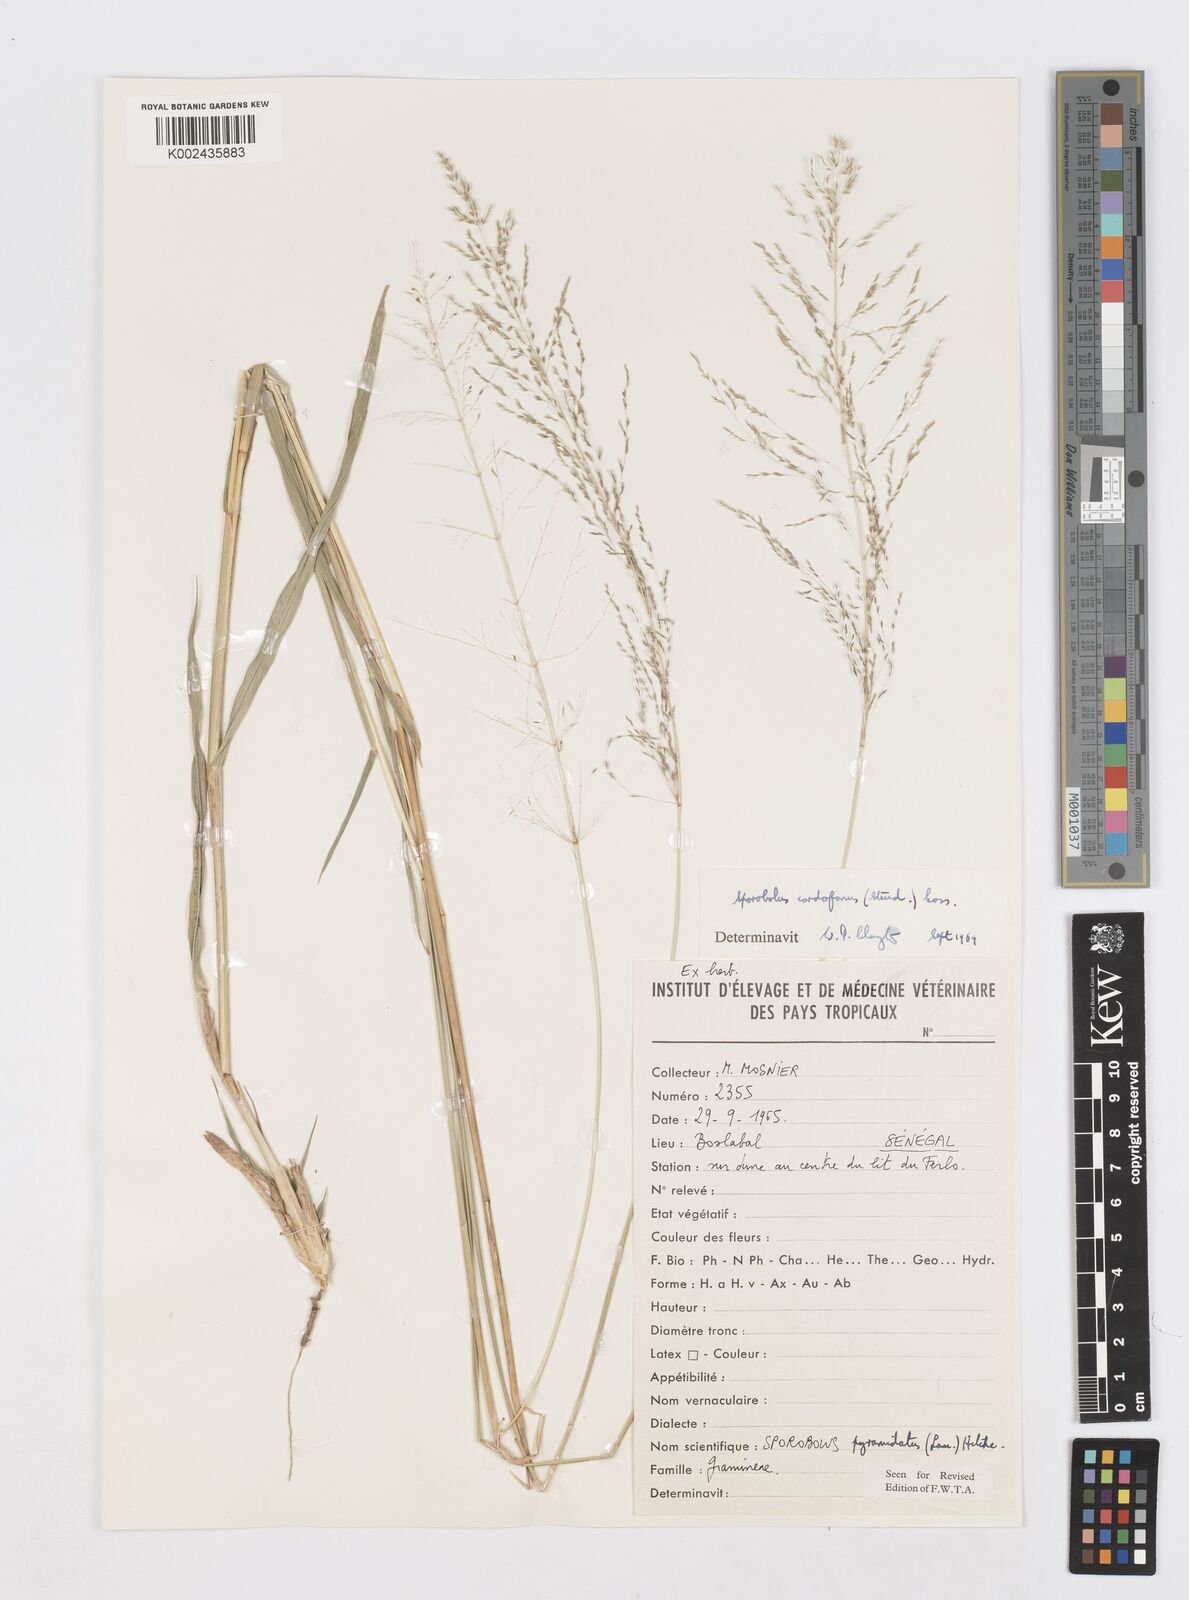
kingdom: Plantae
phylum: Tracheophyta
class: Liliopsida
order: Poales
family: Poaceae
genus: Sporobolus
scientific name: Sporobolus cordofanus
